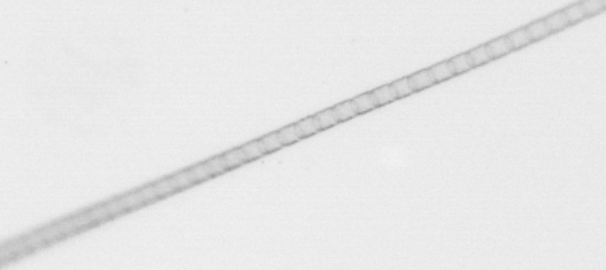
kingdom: Chromista
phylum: Ochrophyta
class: Bacillariophyceae
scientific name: Bacillariophyceae
